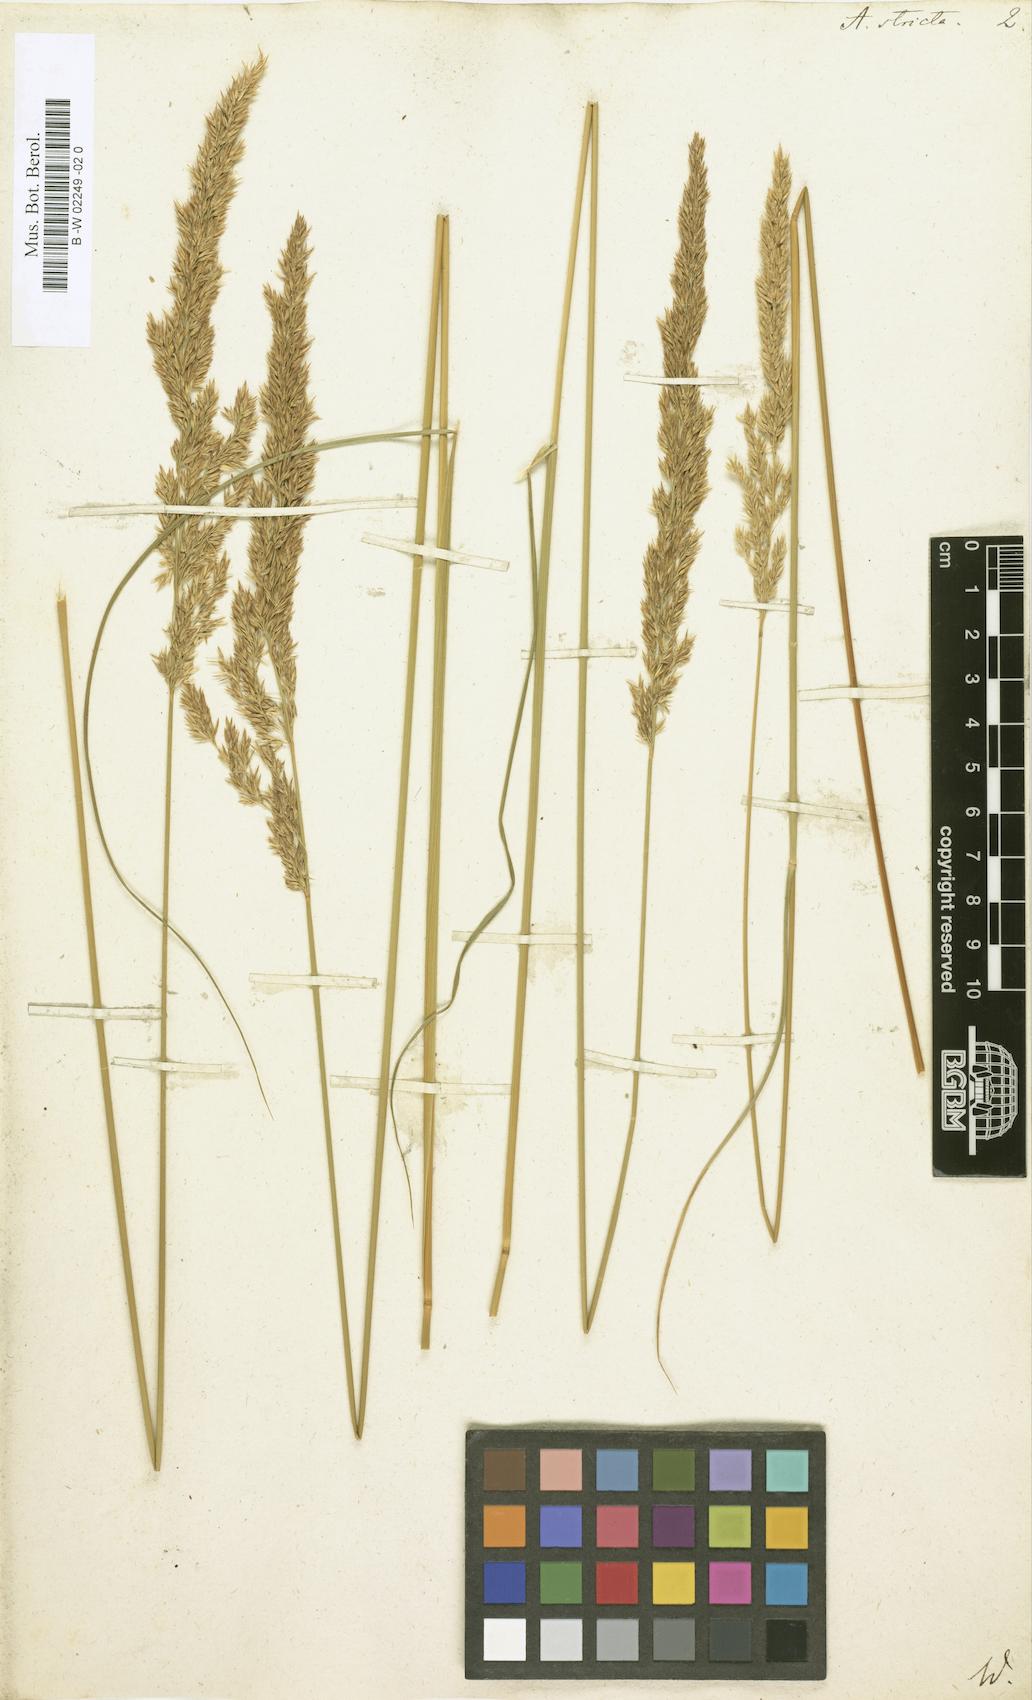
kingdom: Plantae
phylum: Tracheophyta
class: Liliopsida
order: Poales
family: Poaceae
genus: Arundo
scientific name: Arundo stricta
